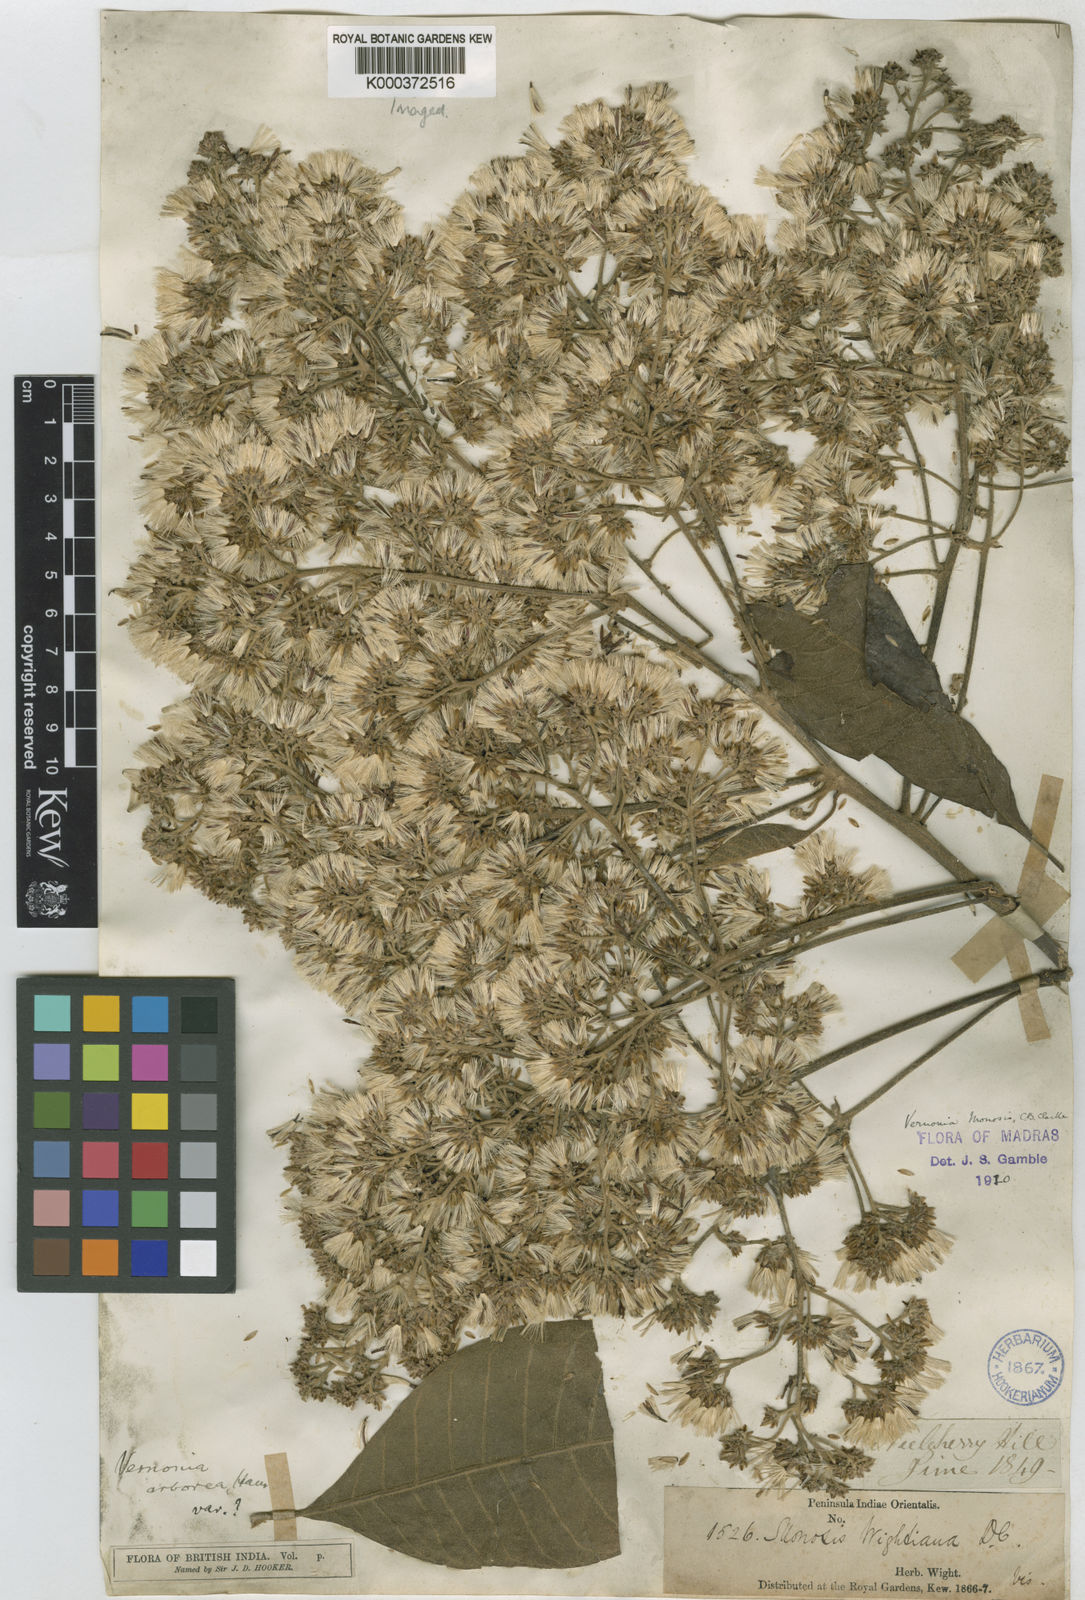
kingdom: Plantae
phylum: Tracheophyta
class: Magnoliopsida
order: Asterales
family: Asteraceae
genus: Strobocalyx
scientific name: Strobocalyx arborea
